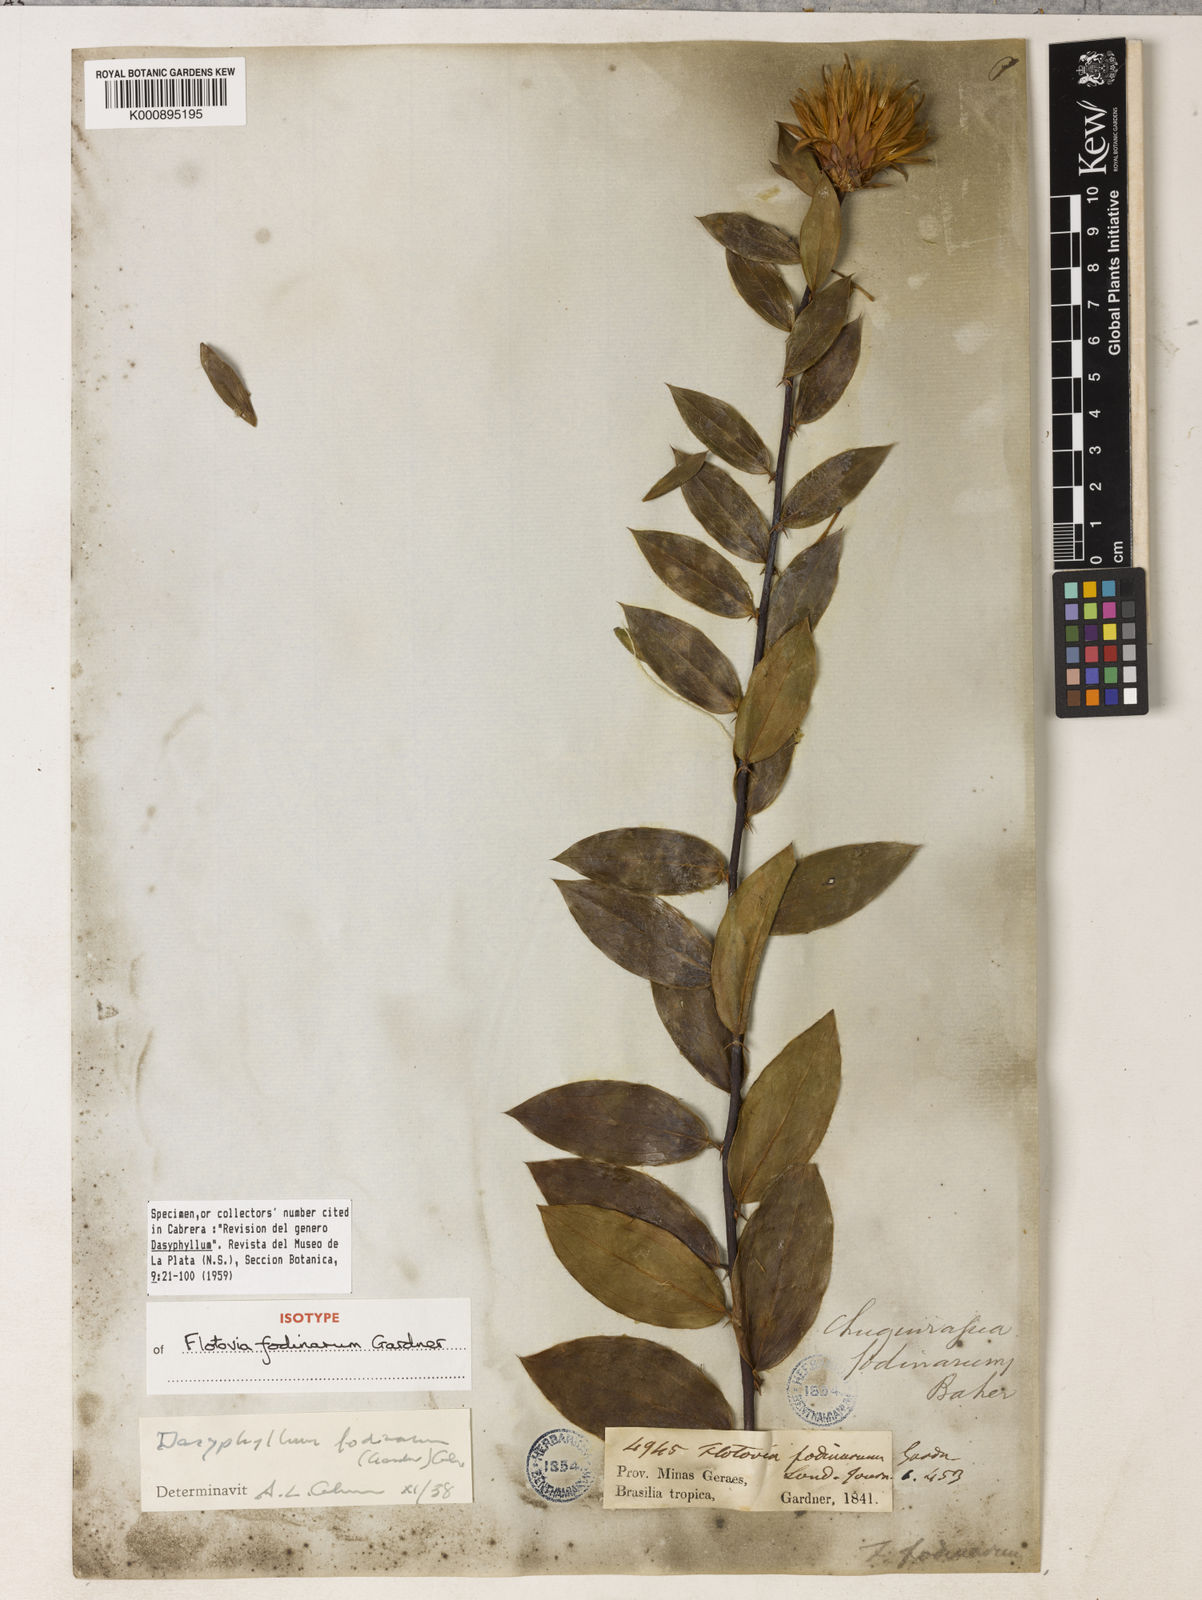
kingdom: Plantae
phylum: Tracheophyta
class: Magnoliopsida
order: Asterales
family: Asteraceae
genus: Dasyphyllum
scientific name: Dasyphyllum fodinarum
